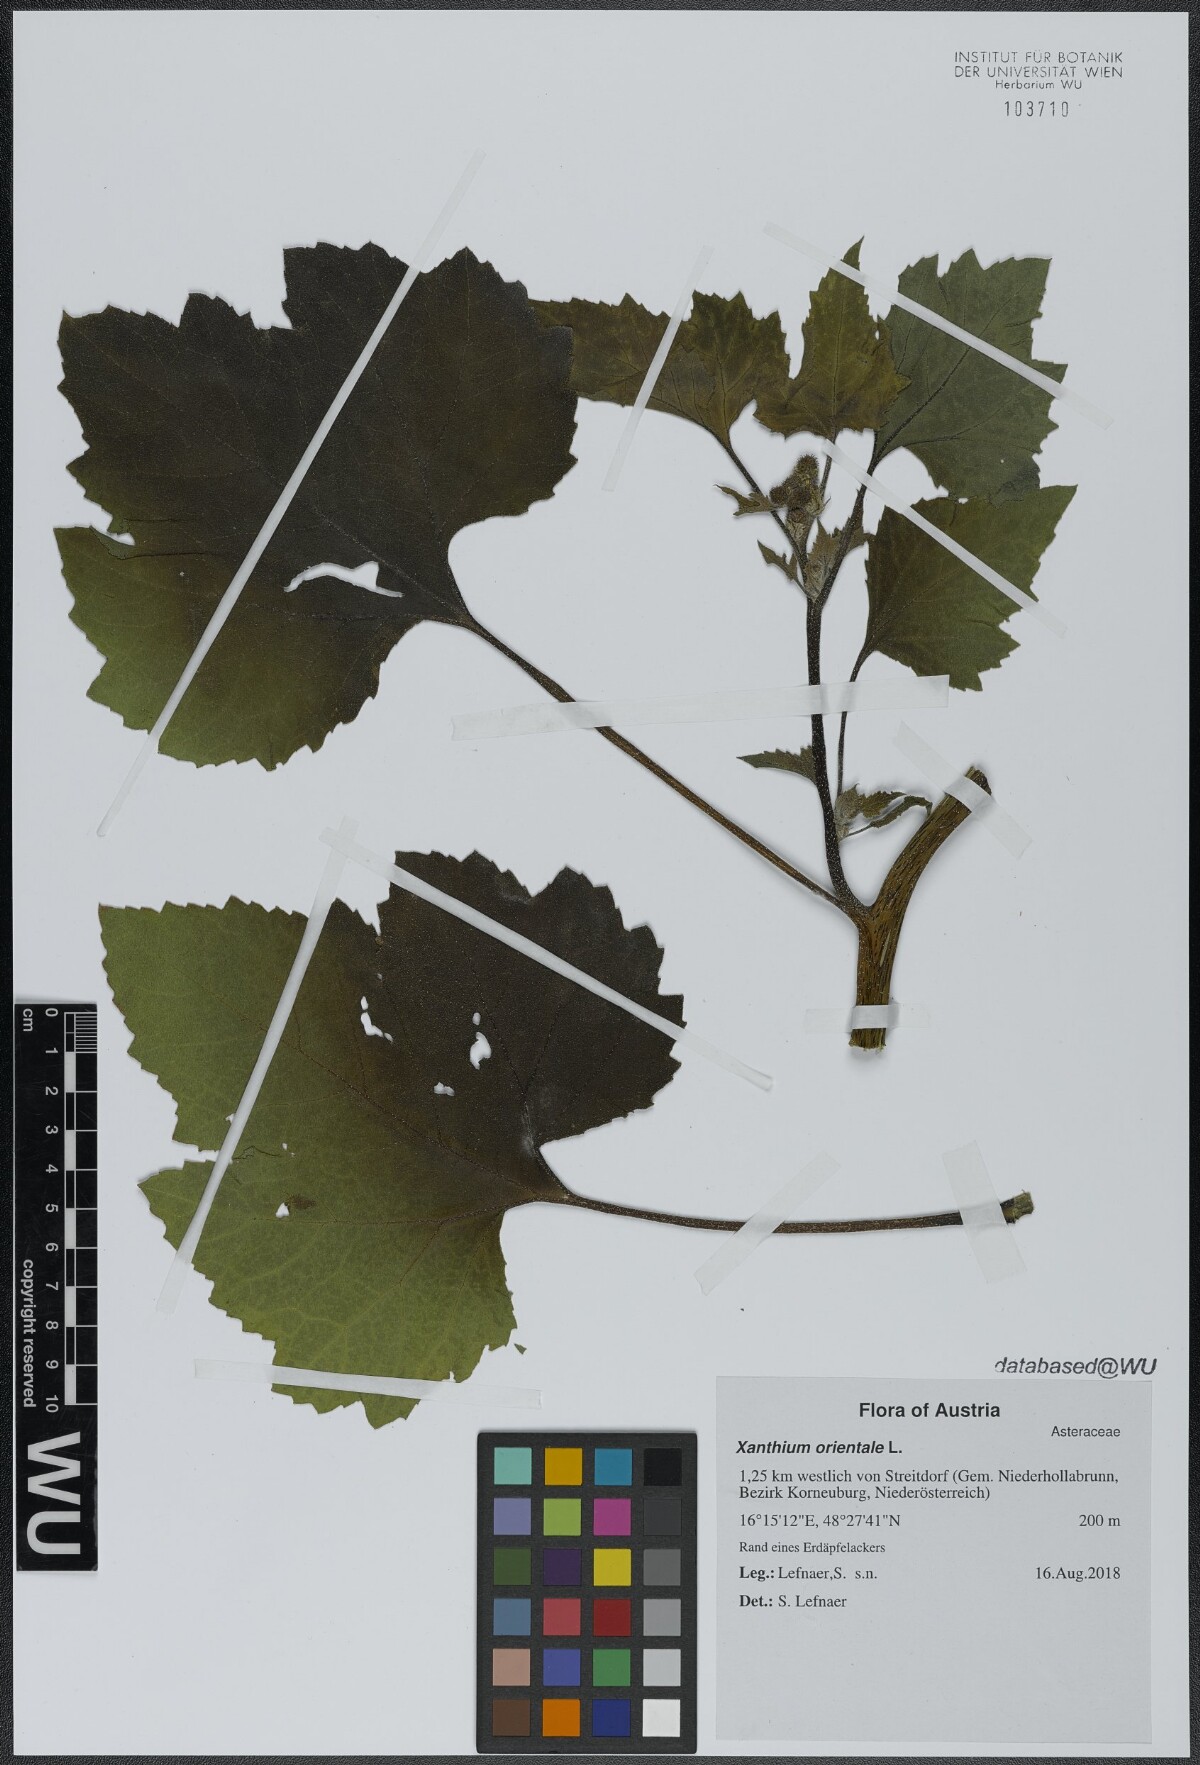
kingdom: Plantae
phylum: Tracheophyta
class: Magnoliopsida
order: Asterales
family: Asteraceae
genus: Xanthium
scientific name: Xanthium orientale
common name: Californian burr
